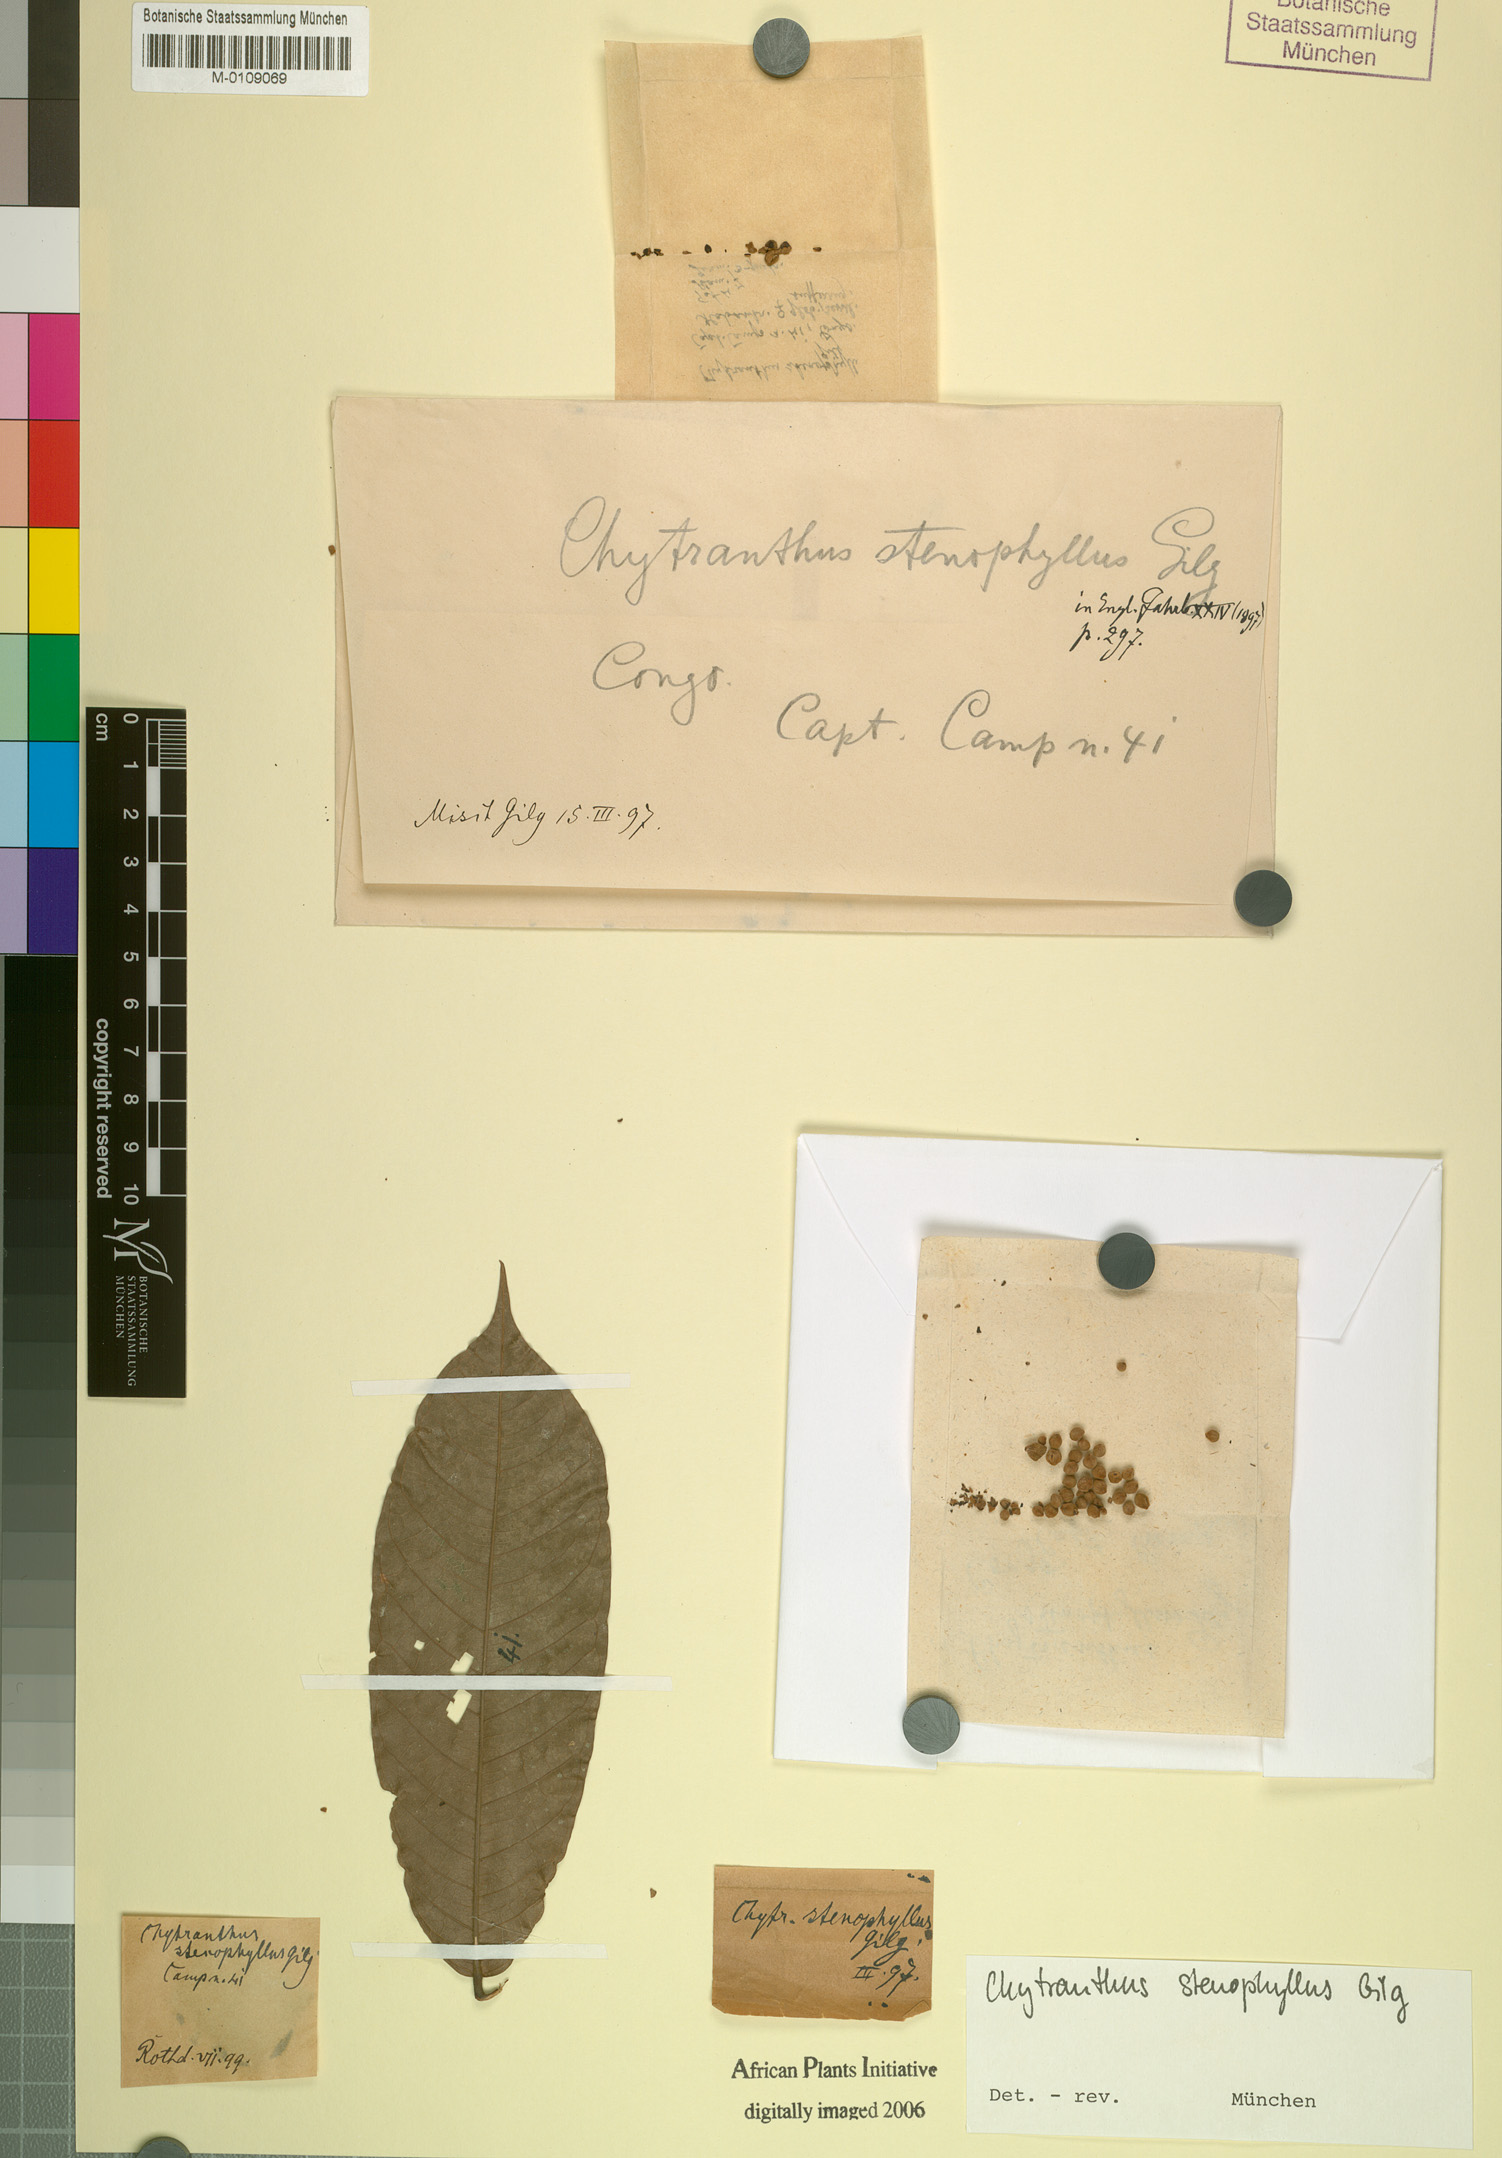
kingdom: Plantae
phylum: Tracheophyta
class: Magnoliopsida
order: Sapindales
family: Sapindaceae
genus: Chytranthus
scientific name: Chytranthus stenophyllus
